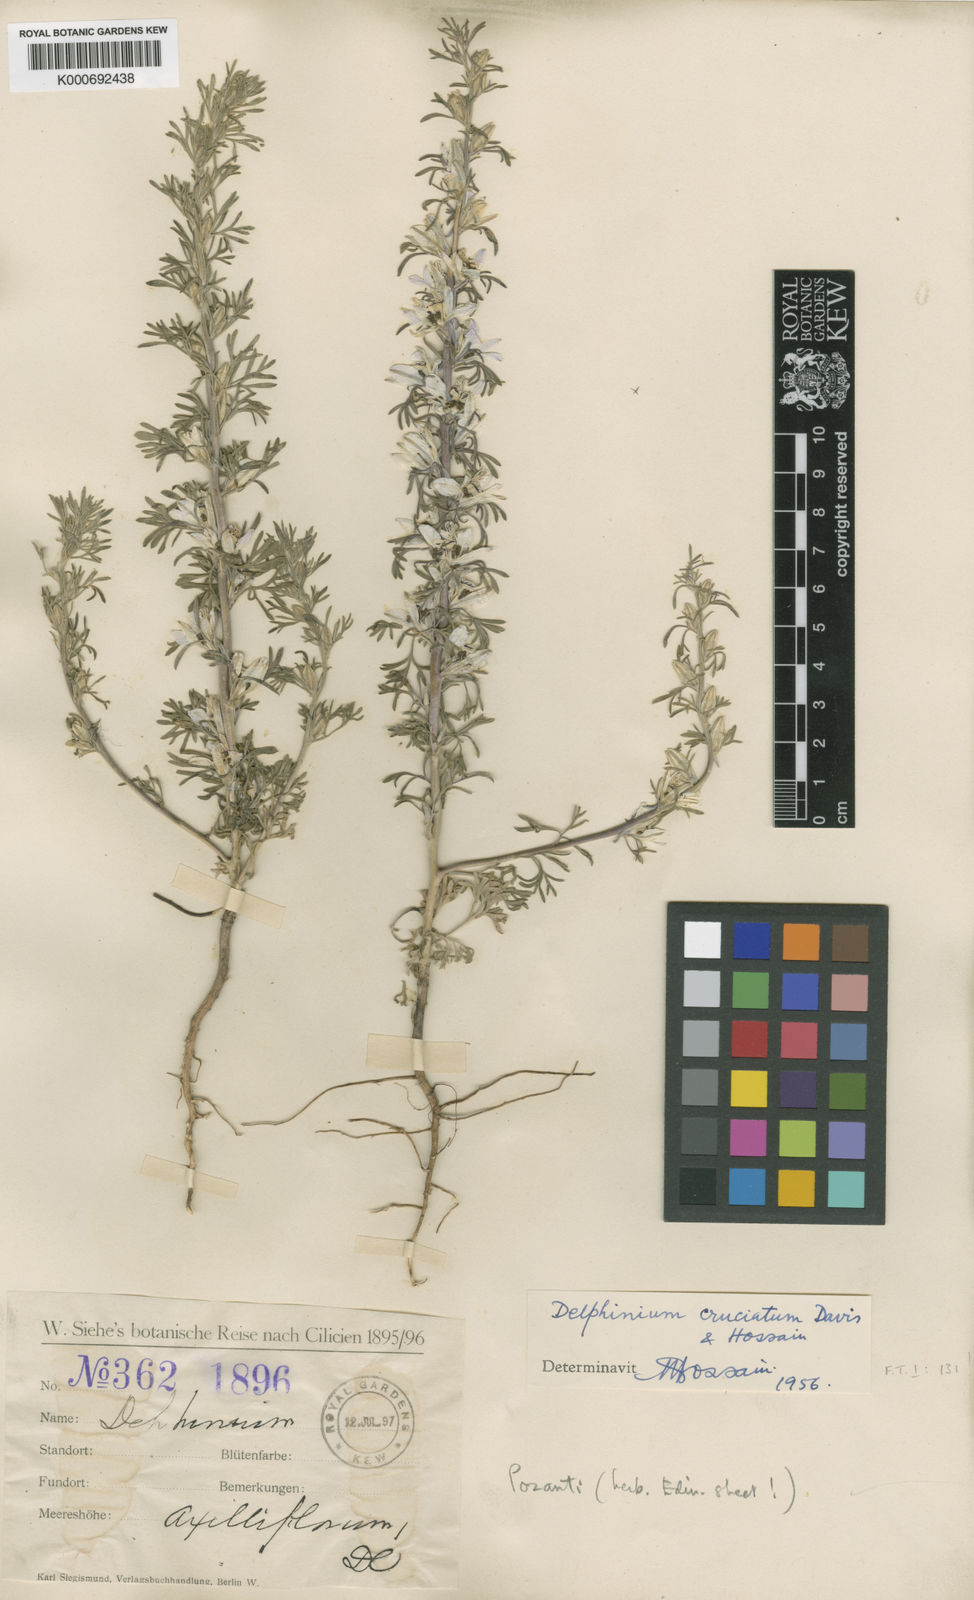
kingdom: Plantae
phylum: Tracheophyta
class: Magnoliopsida
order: Ranunculales
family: Ranunculaceae
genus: Delphinium
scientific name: Delphinium cruciatum
